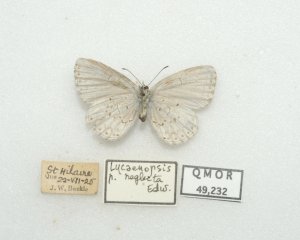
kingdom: Animalia
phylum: Arthropoda
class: Insecta
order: Lepidoptera
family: Lycaenidae
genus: Cyaniris
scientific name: Cyaniris neglecta
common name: Summer Azure
